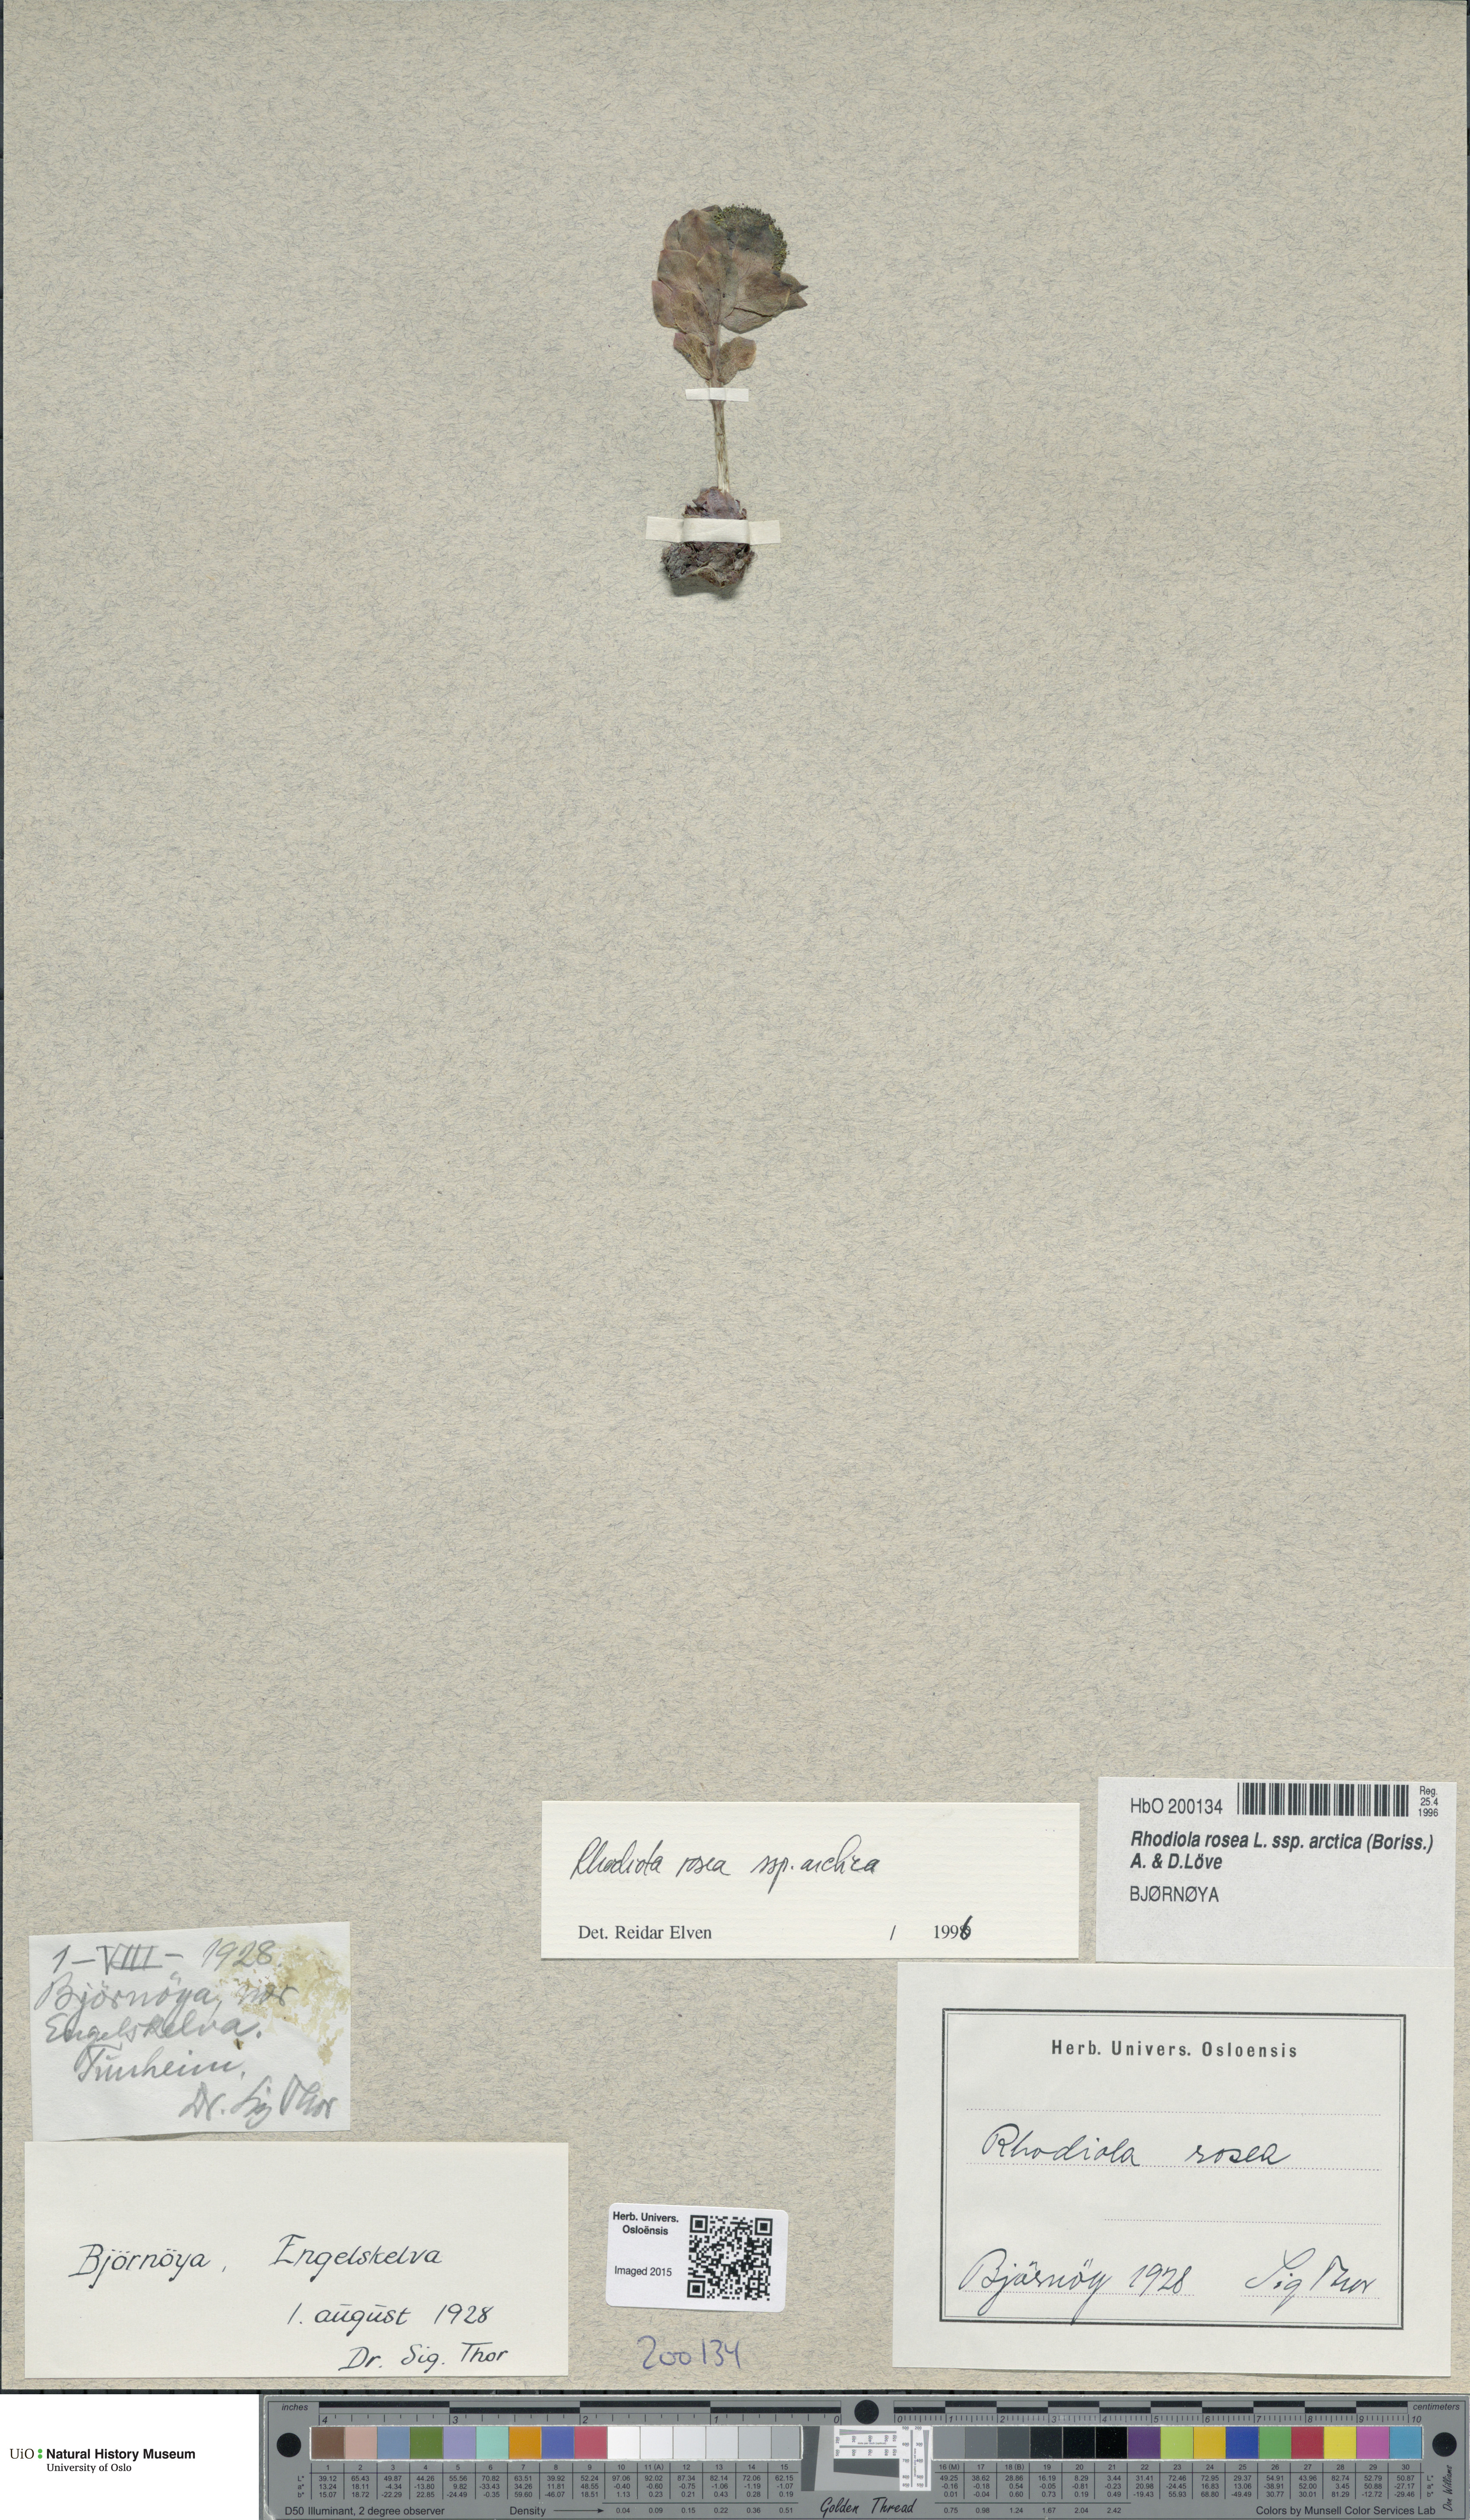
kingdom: Plantae
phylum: Tracheophyta
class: Magnoliopsida
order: Saxifragales
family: Crassulaceae
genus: Rhodiola
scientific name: Rhodiola rosea
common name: Roseroot
